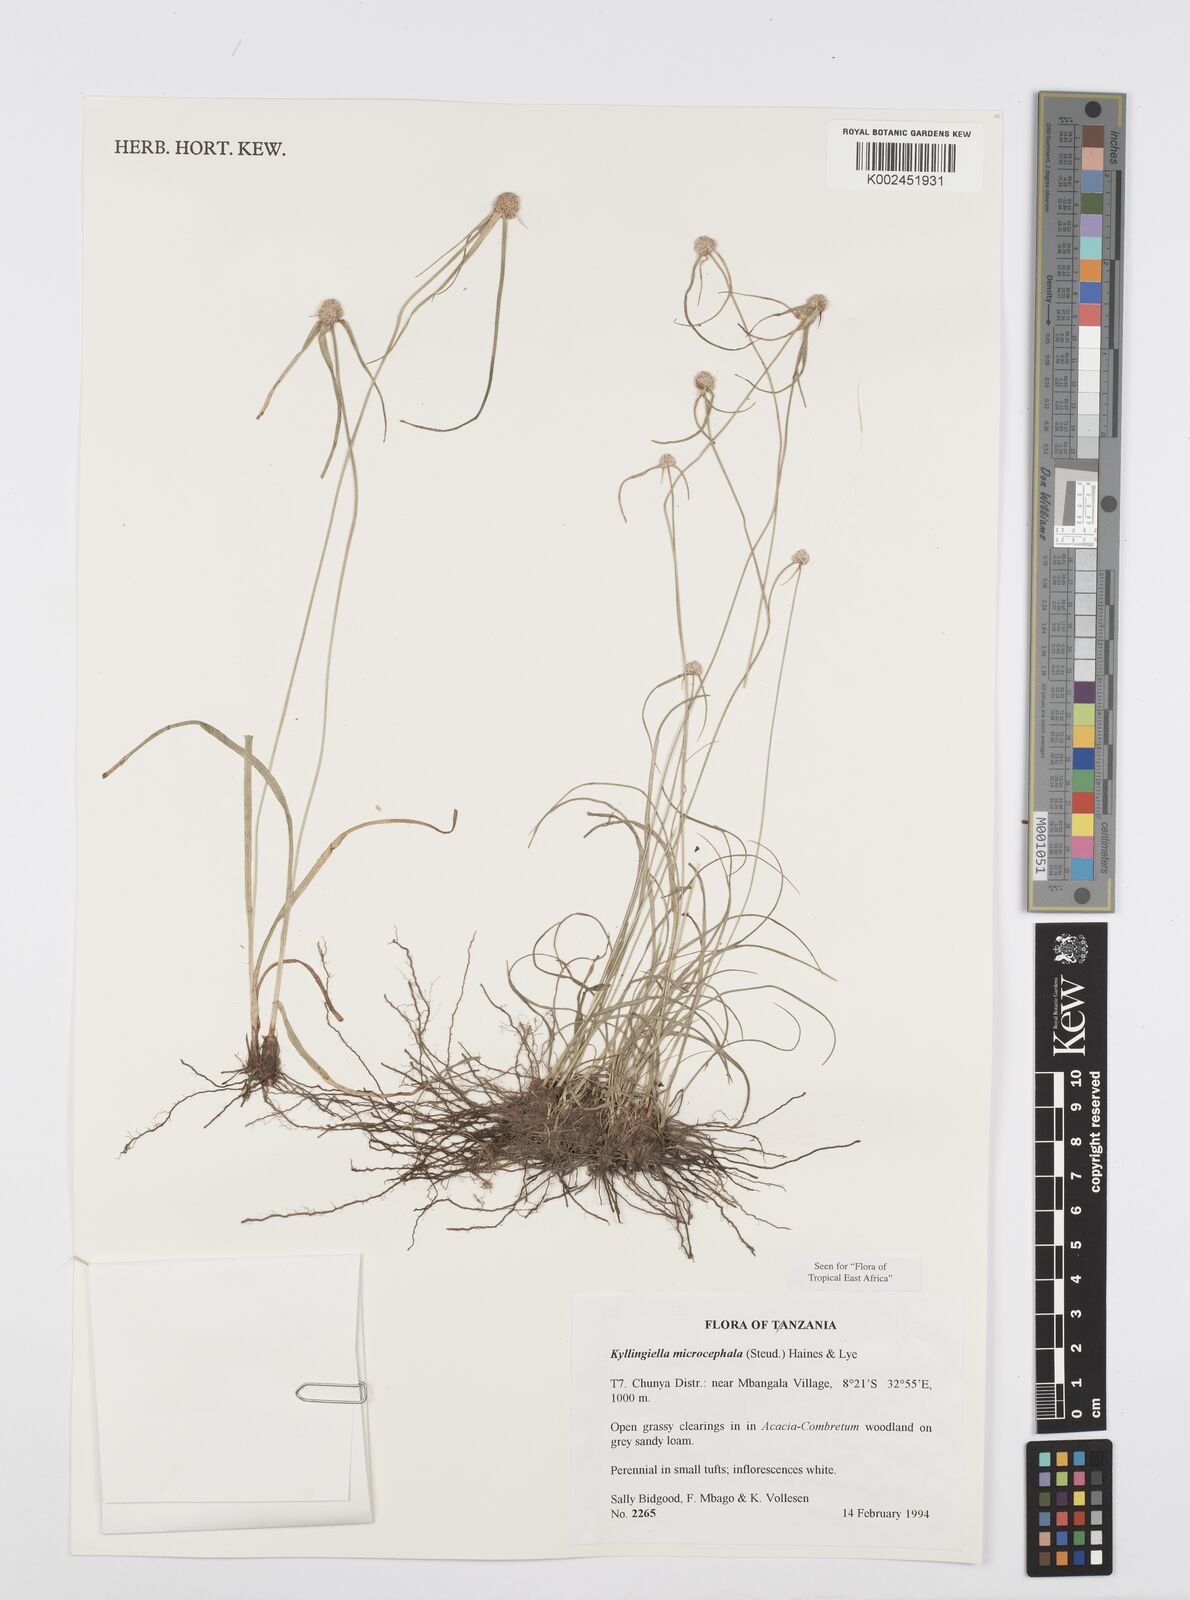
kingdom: Plantae
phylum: Tracheophyta
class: Liliopsida
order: Poales
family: Cyperaceae
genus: Cyperus
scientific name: Cyperus microcephalus
